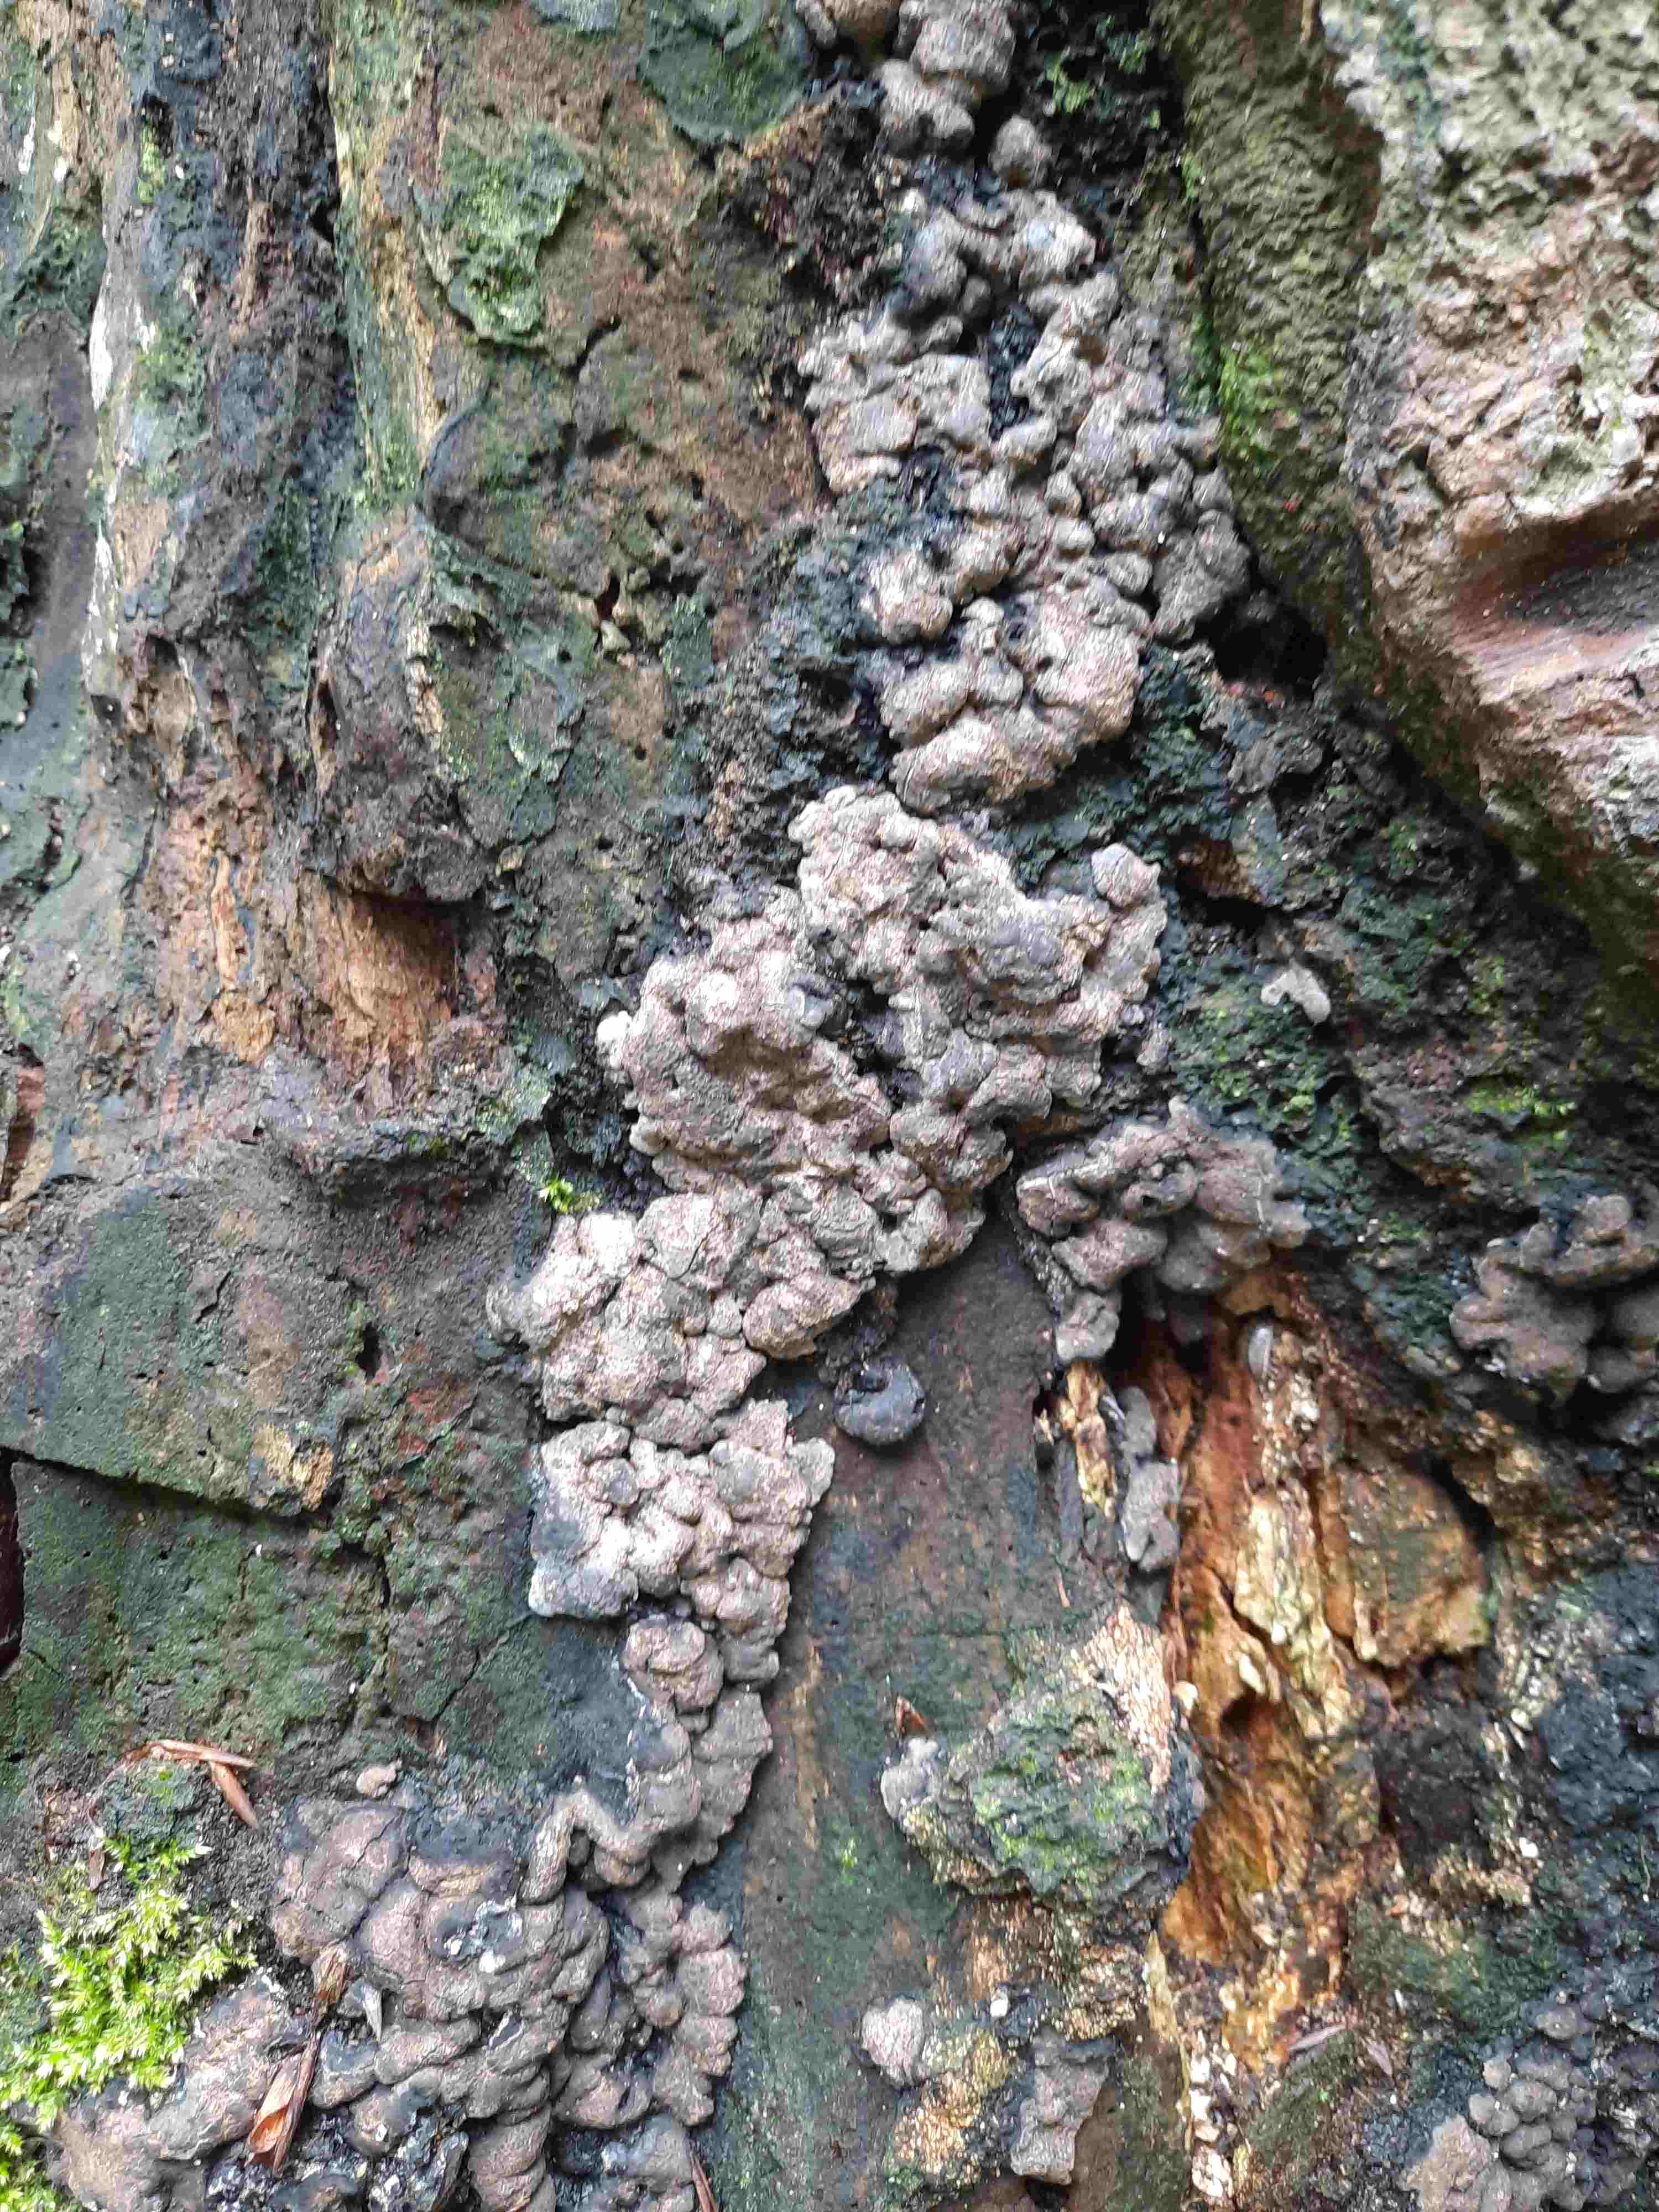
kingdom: Fungi
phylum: Ascomycota
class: Sordariomycetes
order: Xylariales
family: Xylariaceae
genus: Kretzschmaria
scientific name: Kretzschmaria deusta
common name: stor kulsvamp
